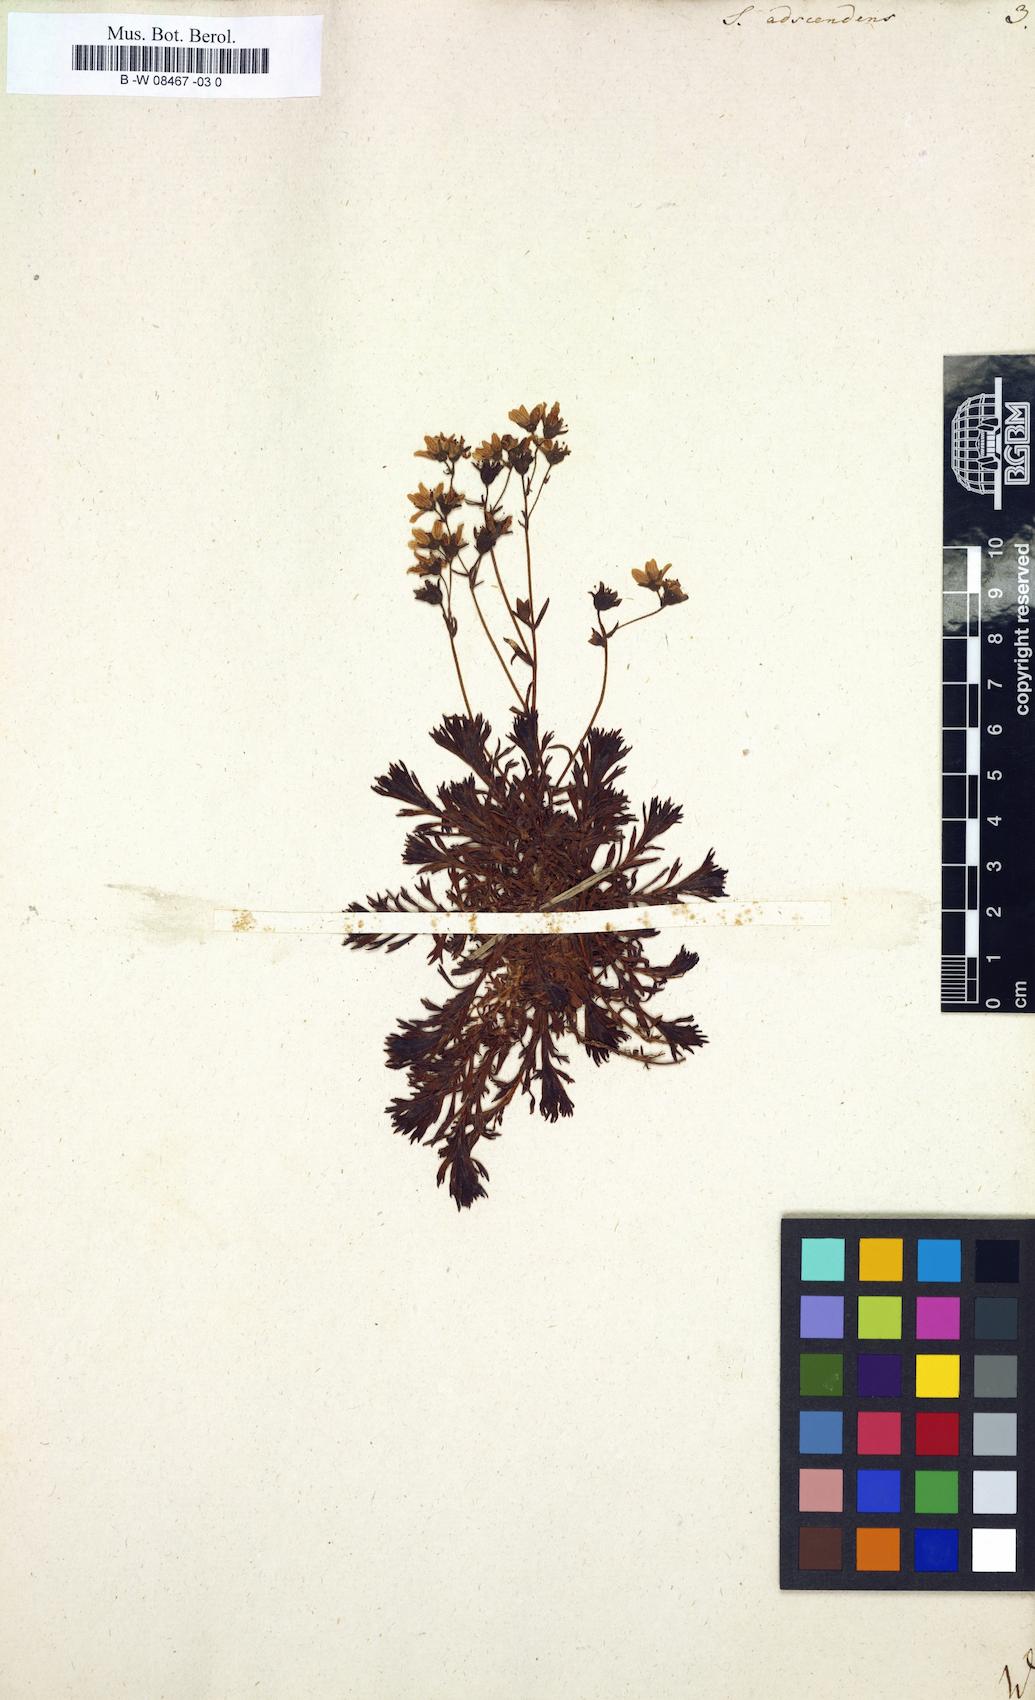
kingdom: Plantae
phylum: Tracheophyta
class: Magnoliopsida
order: Saxifragales
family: Saxifragaceae
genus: Saxifraga
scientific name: Saxifraga adscendens
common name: Ascending saxifrage
